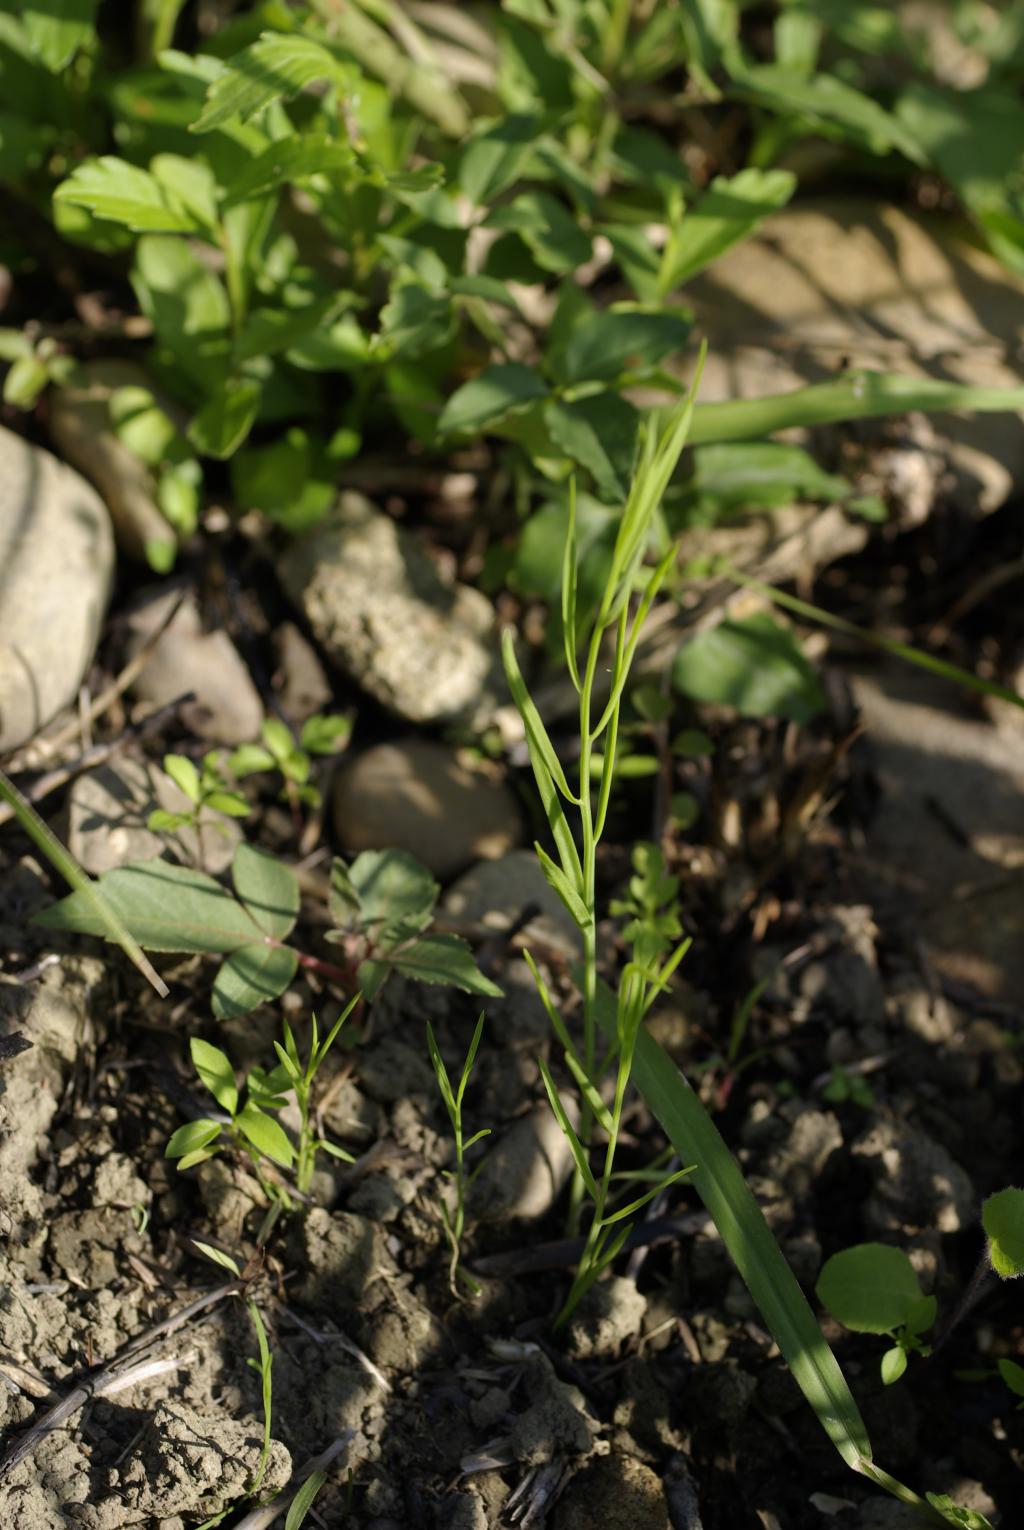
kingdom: Plantae
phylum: Tracheophyta
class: Magnoliopsida
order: Santalales
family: Thesiaceae
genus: Thesium
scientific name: Thesium chinense
